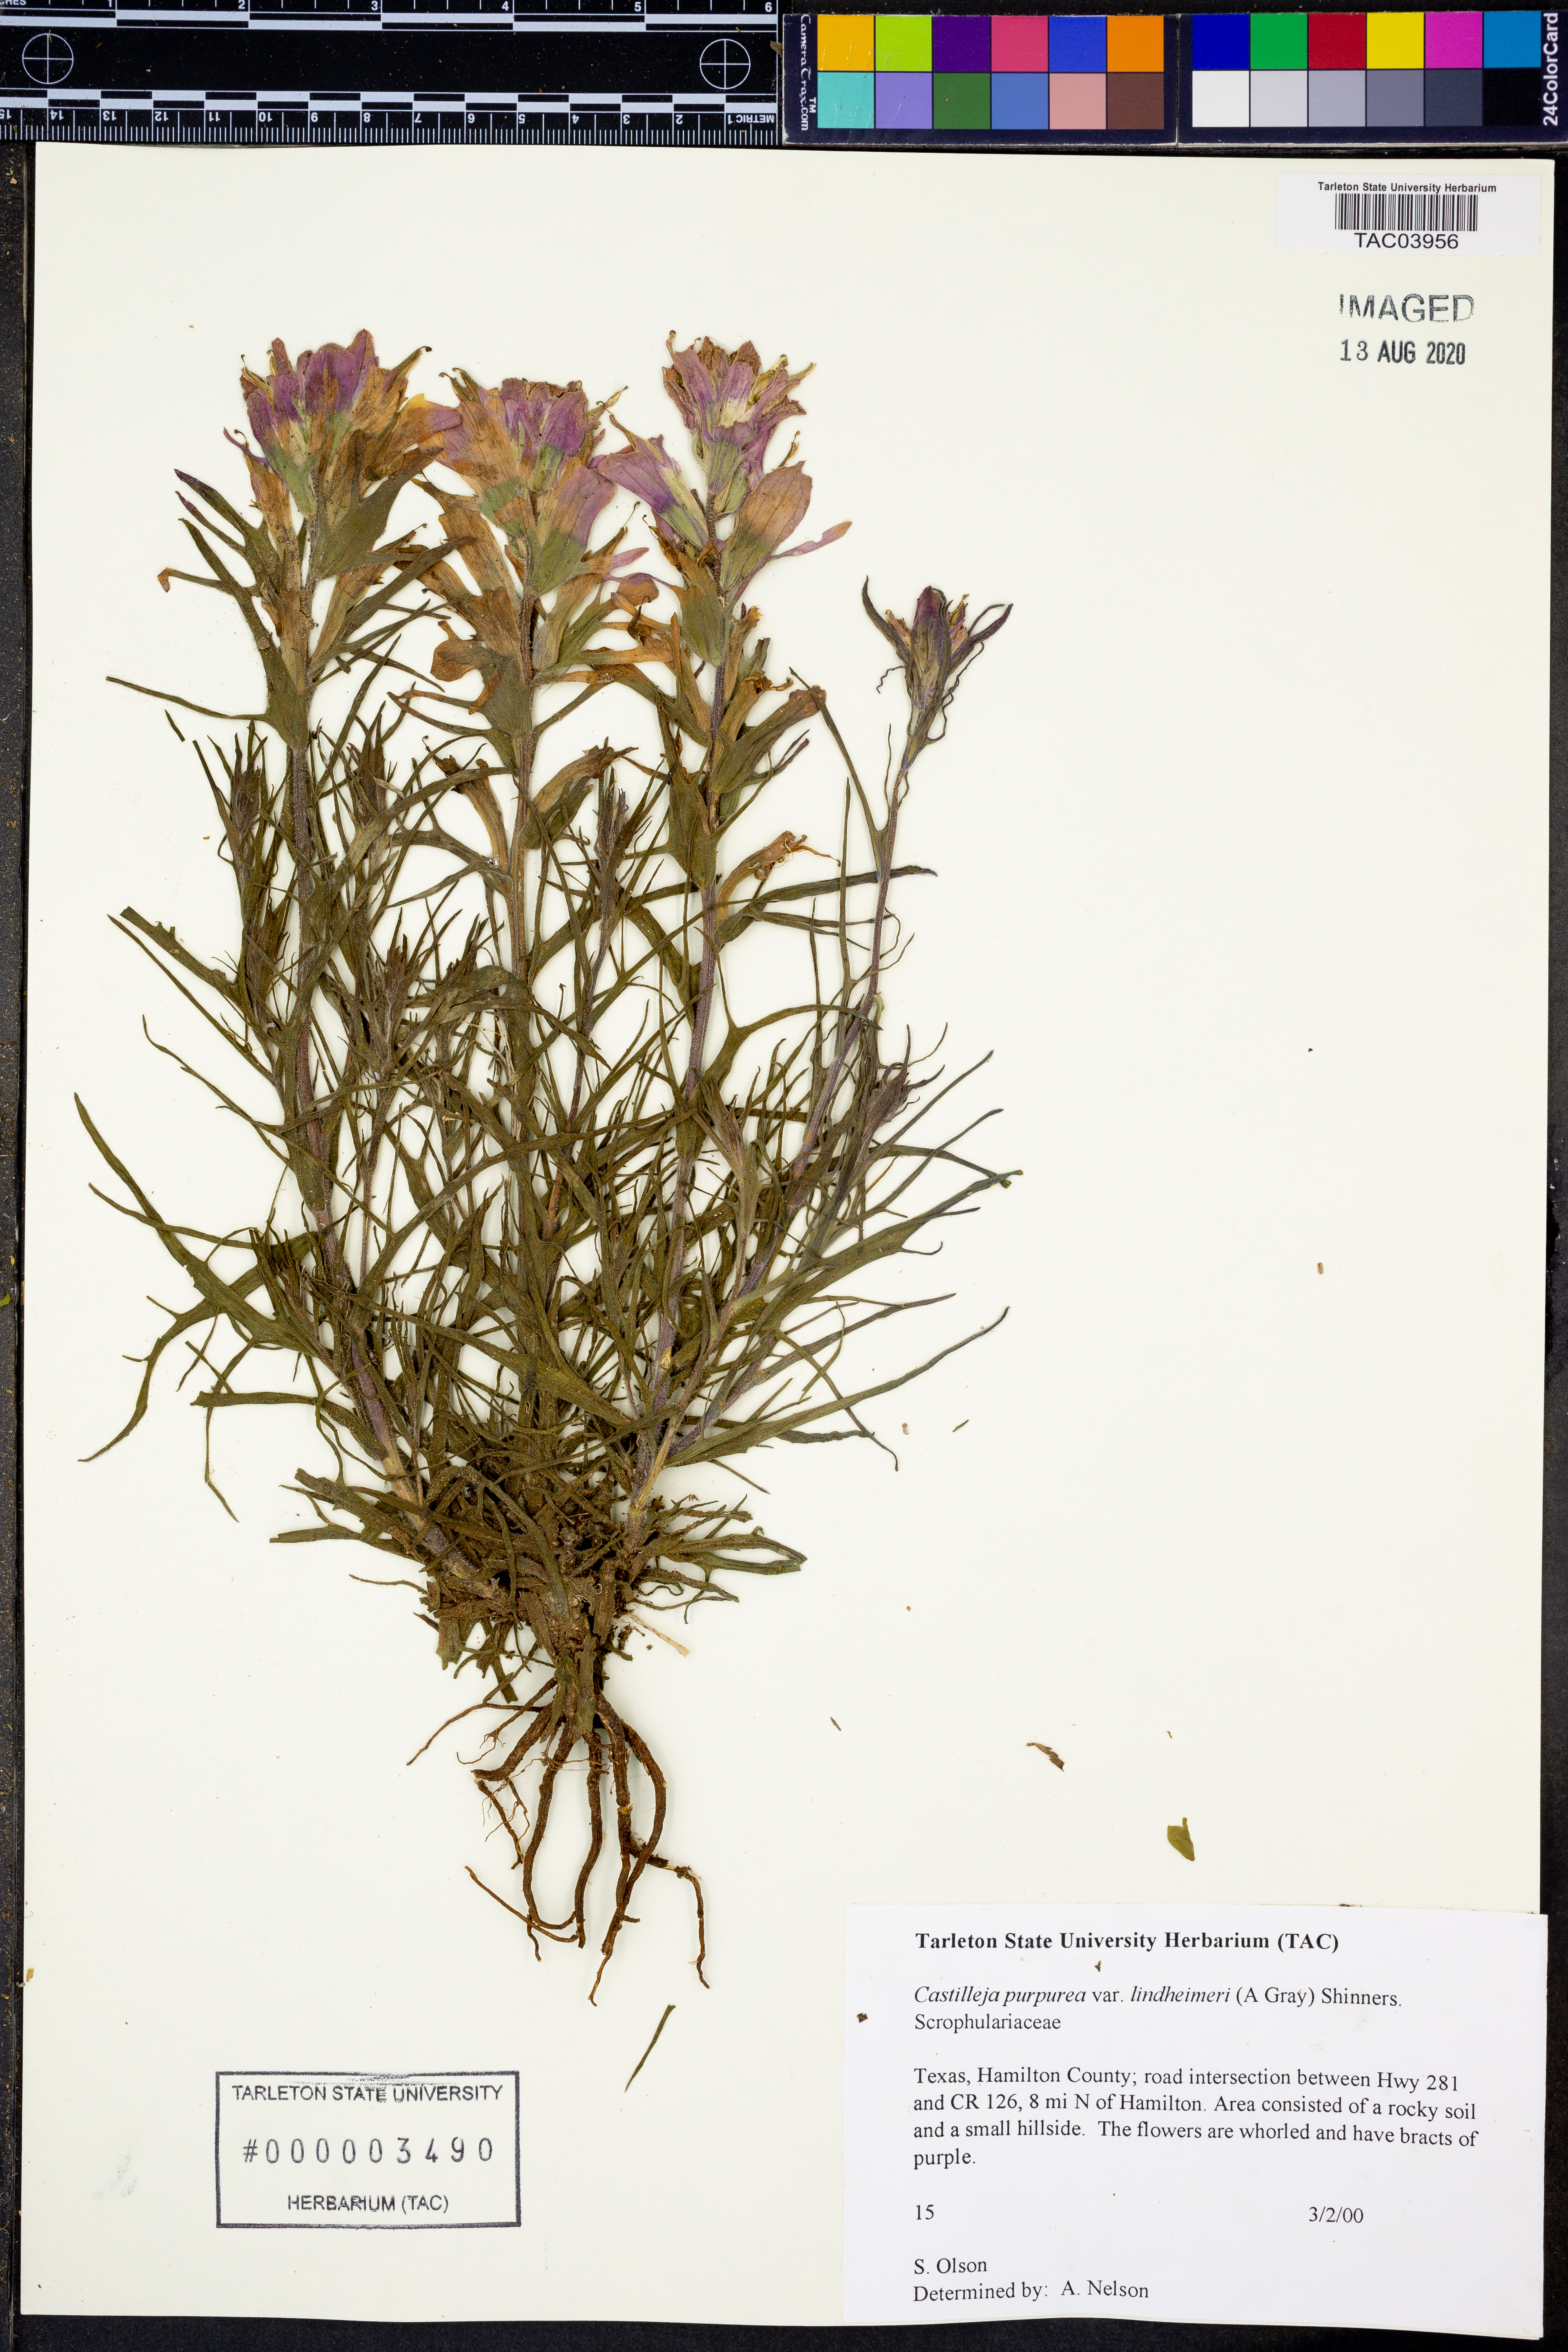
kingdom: Plantae
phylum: Tracheophyta
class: Magnoliopsida
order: Lamiales
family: Orobanchaceae
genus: Castilleja
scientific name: Castilleja lindheimeri
